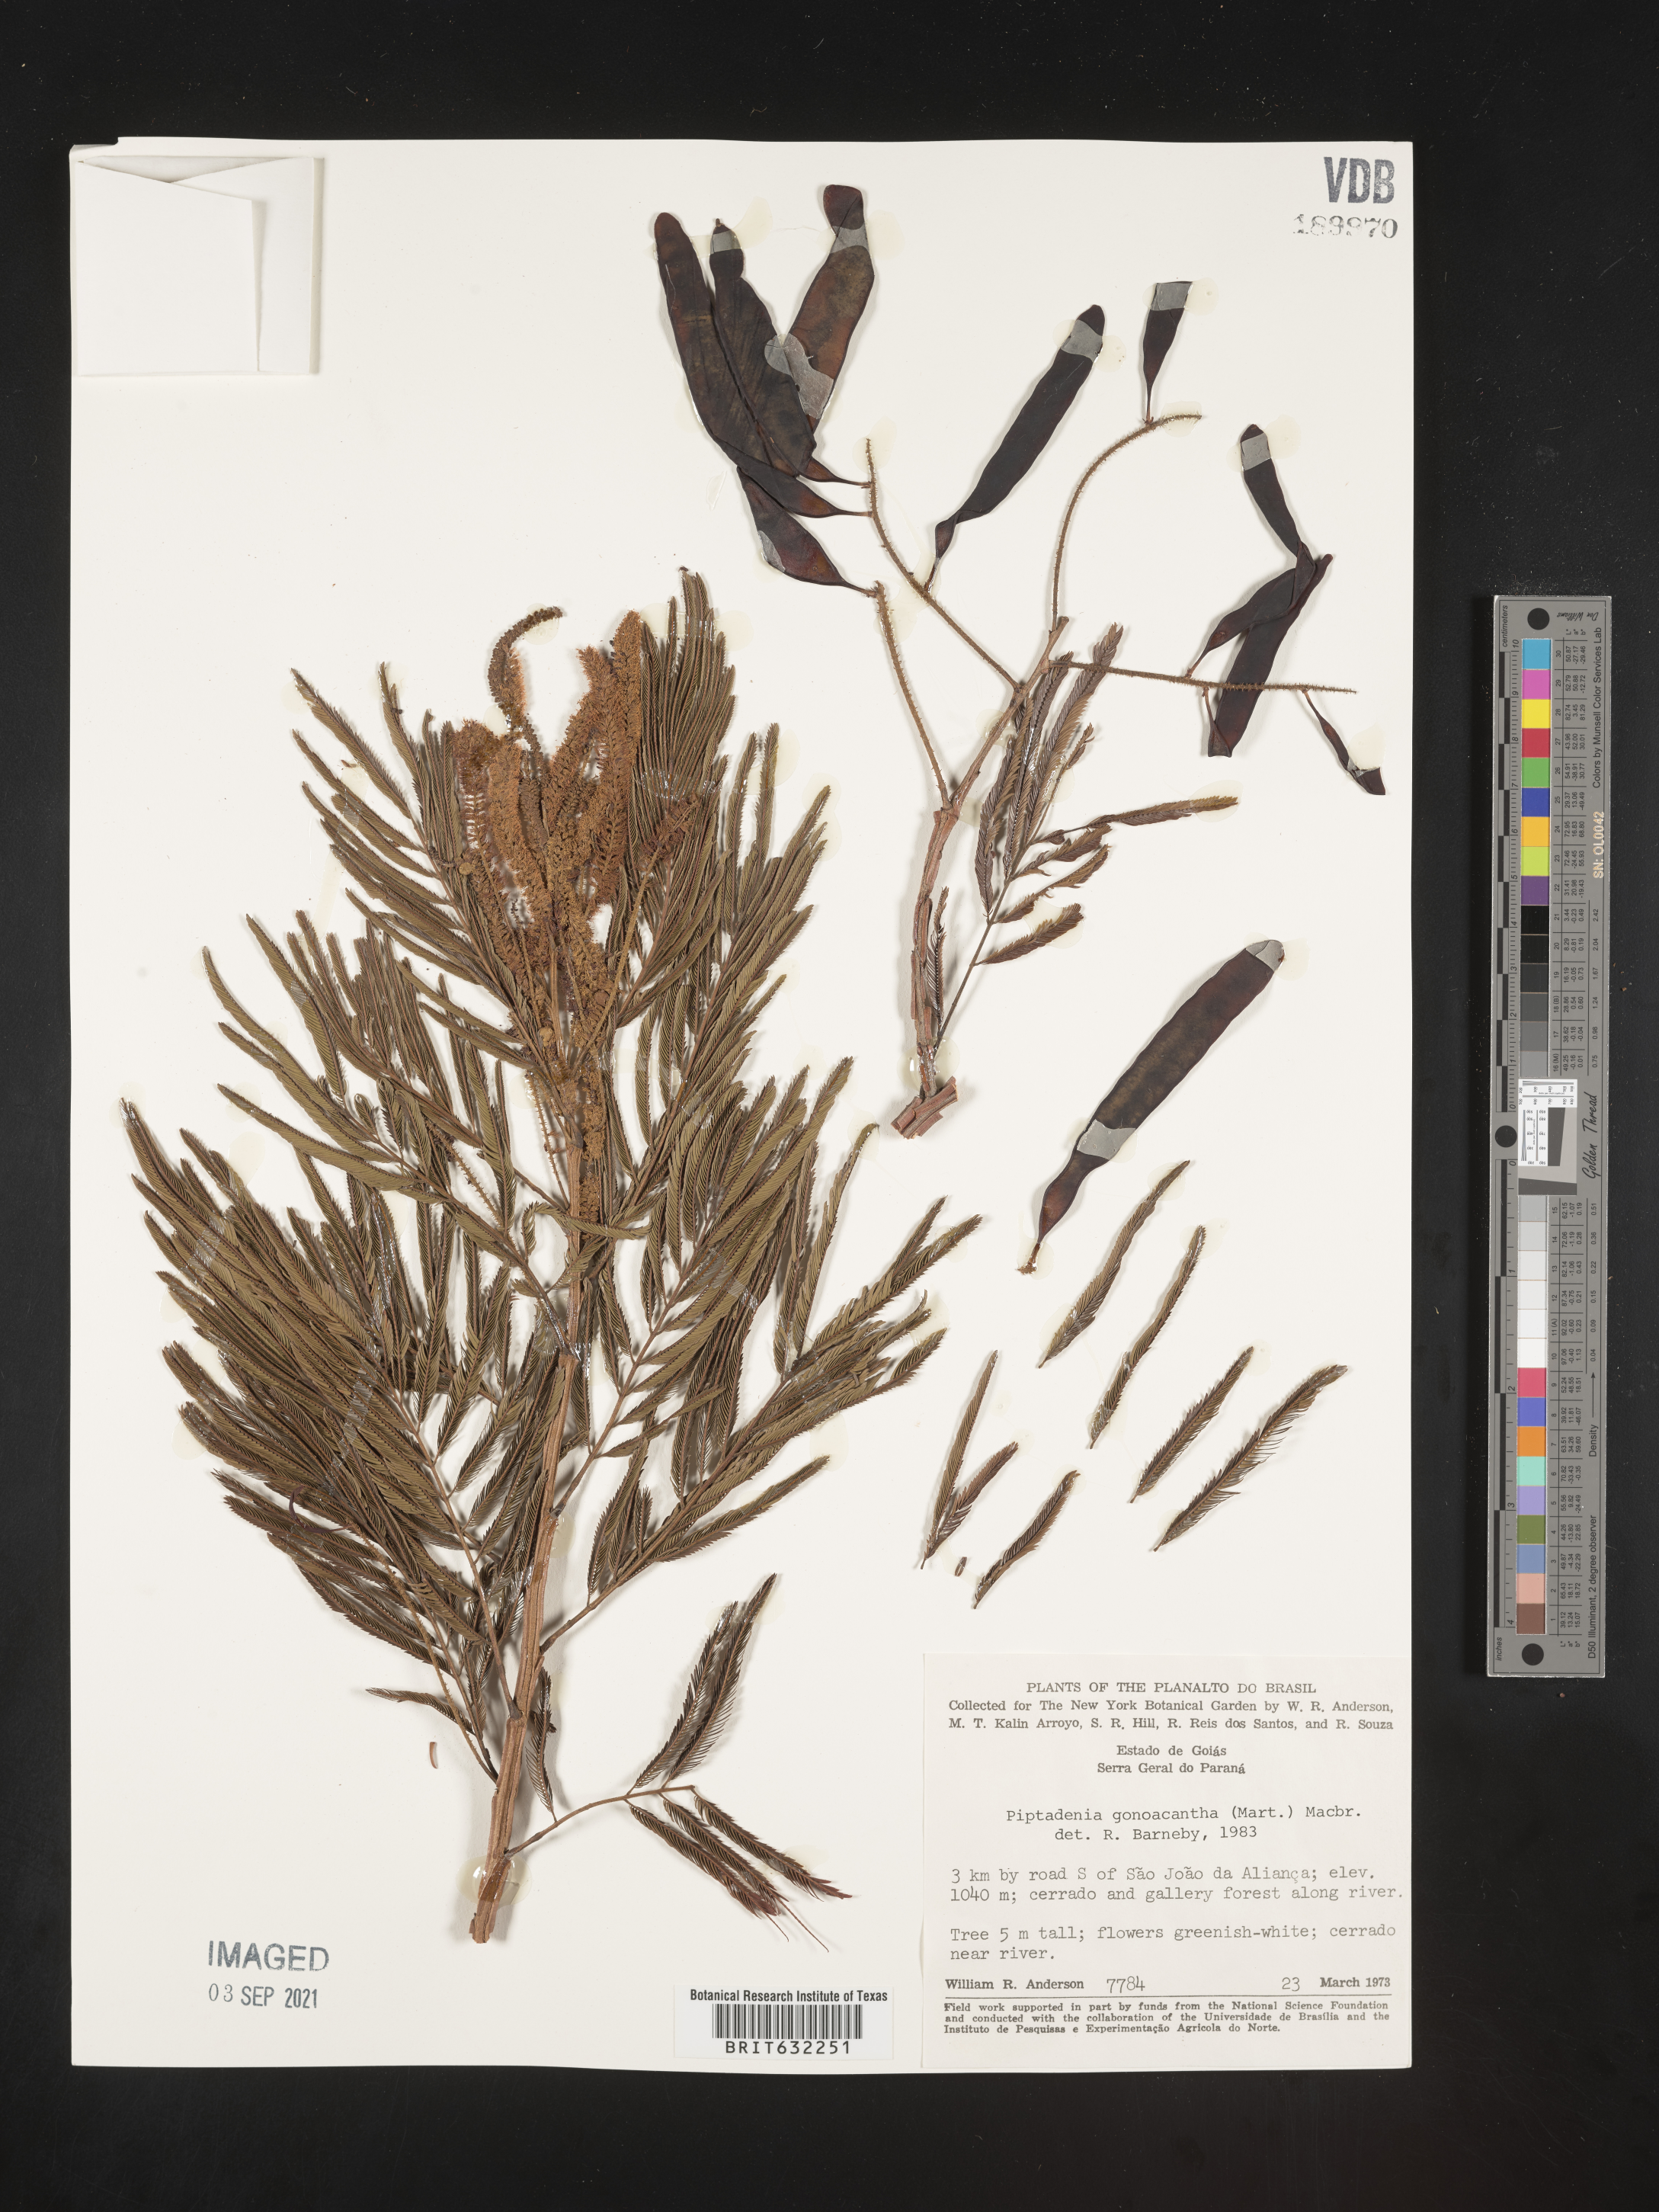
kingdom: Plantae
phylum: Tracheophyta
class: Magnoliopsida
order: Fabales
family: Fabaceae
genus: Piptadenia
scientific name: Piptadenia
